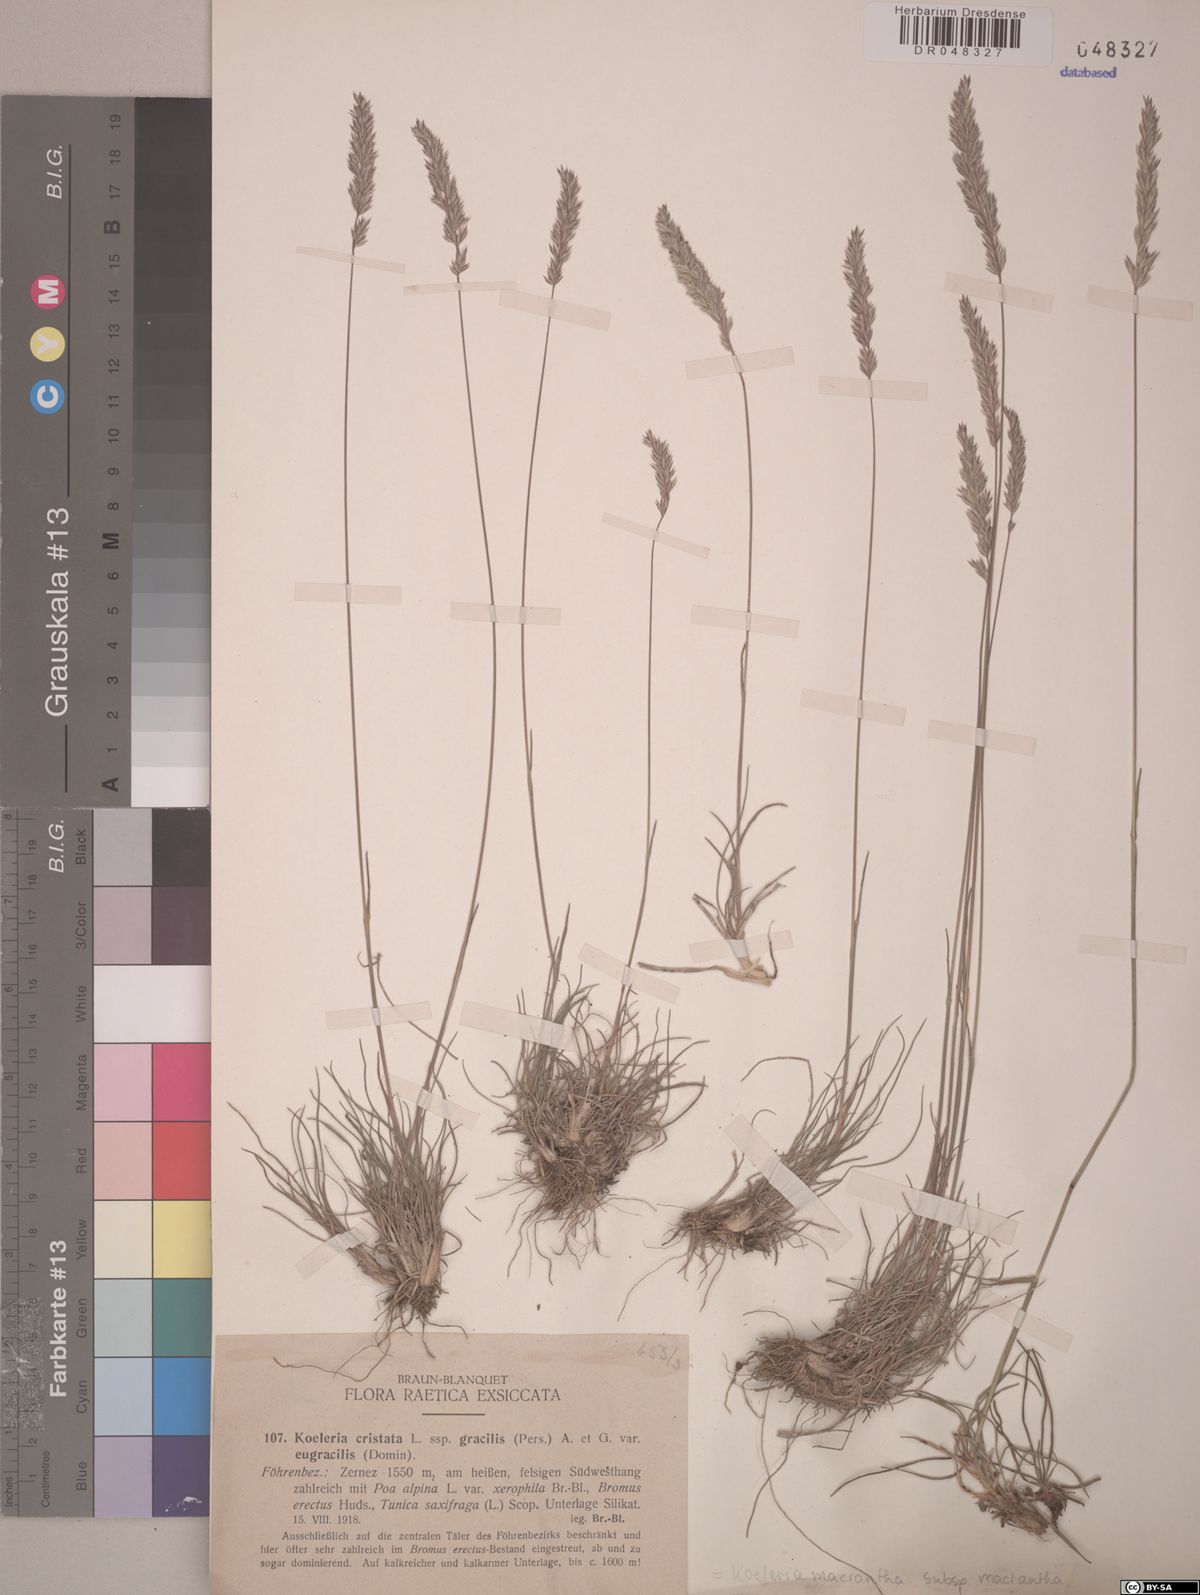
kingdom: Plantae
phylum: Tracheophyta
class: Liliopsida
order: Poales
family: Poaceae
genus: Koeleria
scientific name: Koeleria macrantha
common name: Crested hair-grass
